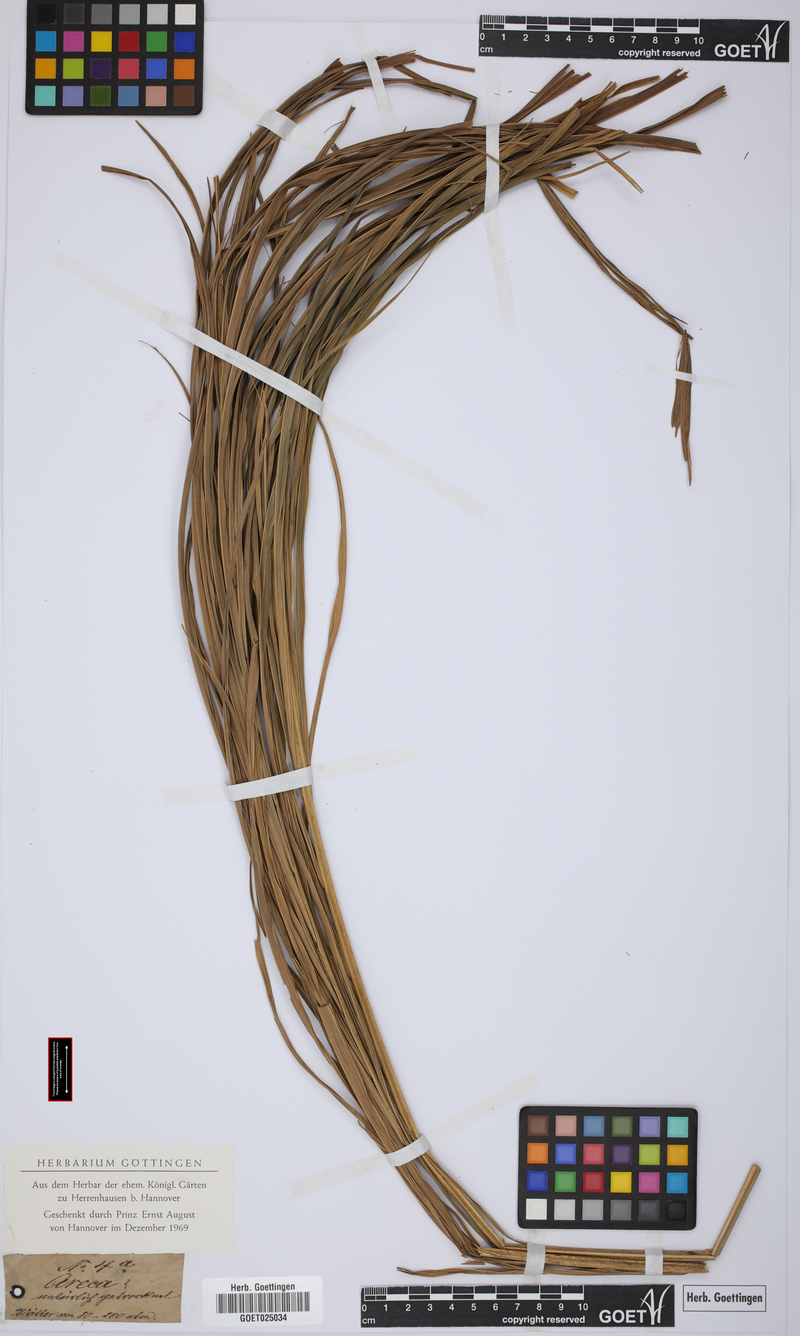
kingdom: Plantae
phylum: Tracheophyta
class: Liliopsida
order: Arecales
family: Arecaceae
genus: Areca
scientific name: Areca
